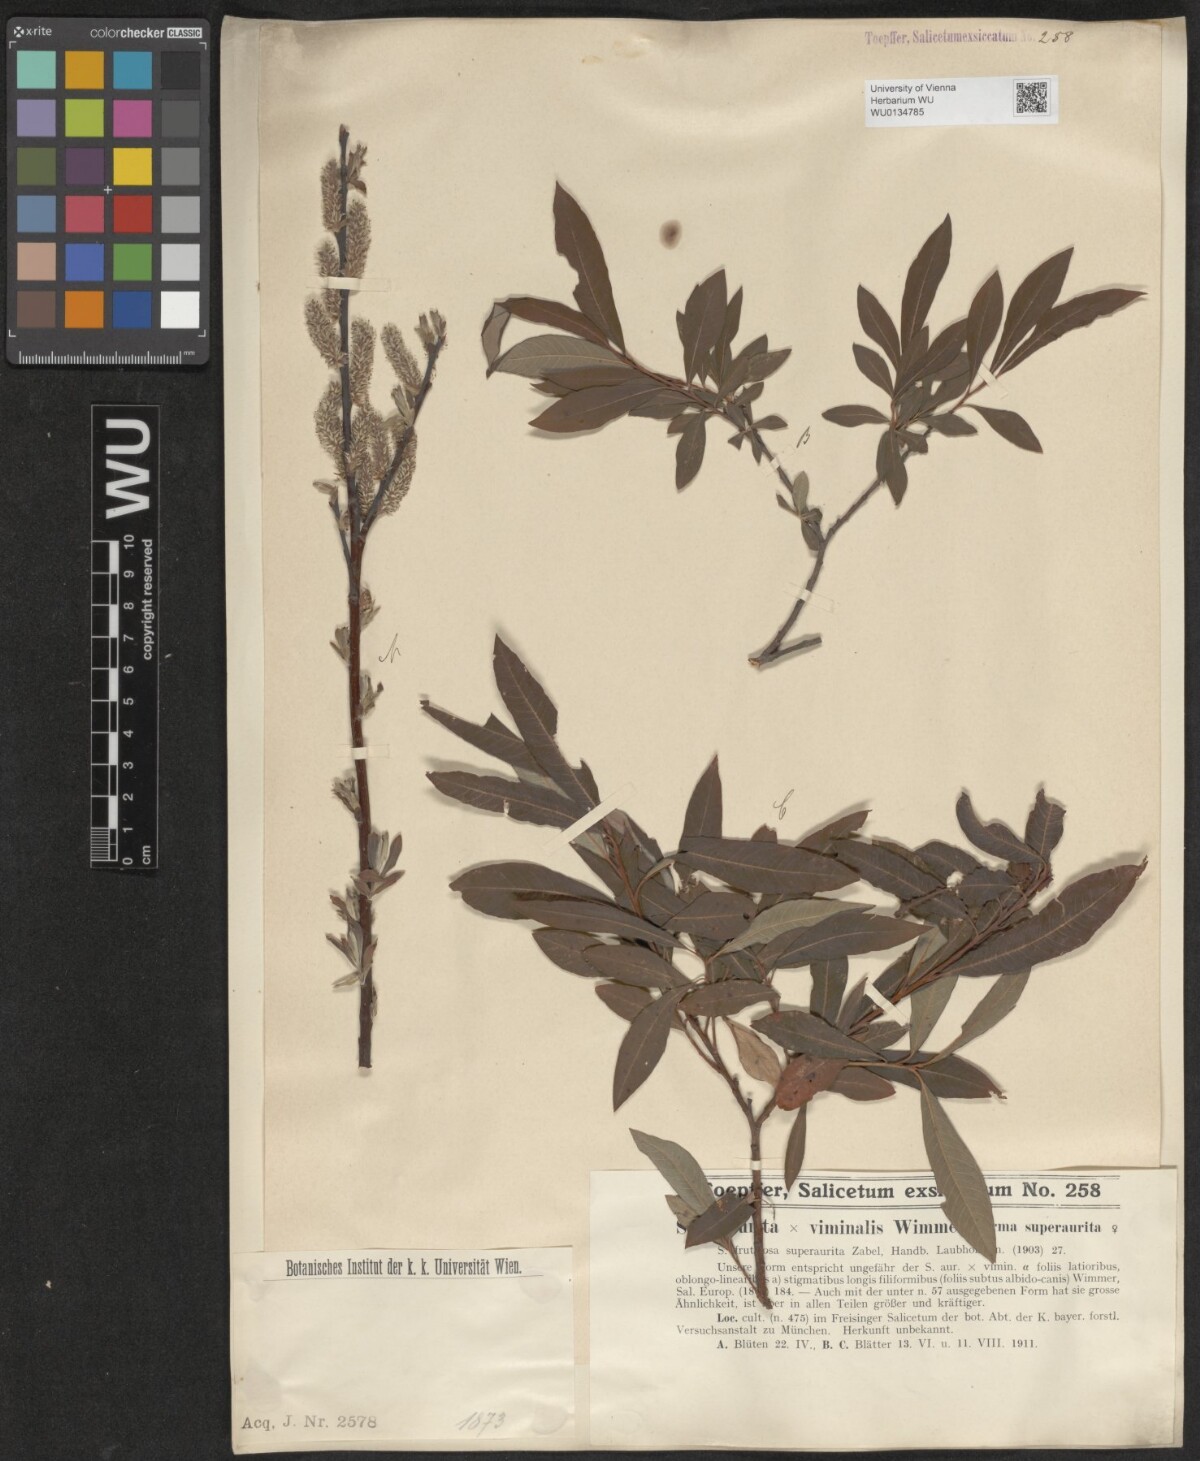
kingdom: Plantae
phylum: Tracheophyta
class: Magnoliopsida
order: Malpighiales
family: Salicaceae
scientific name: Salicaceae
